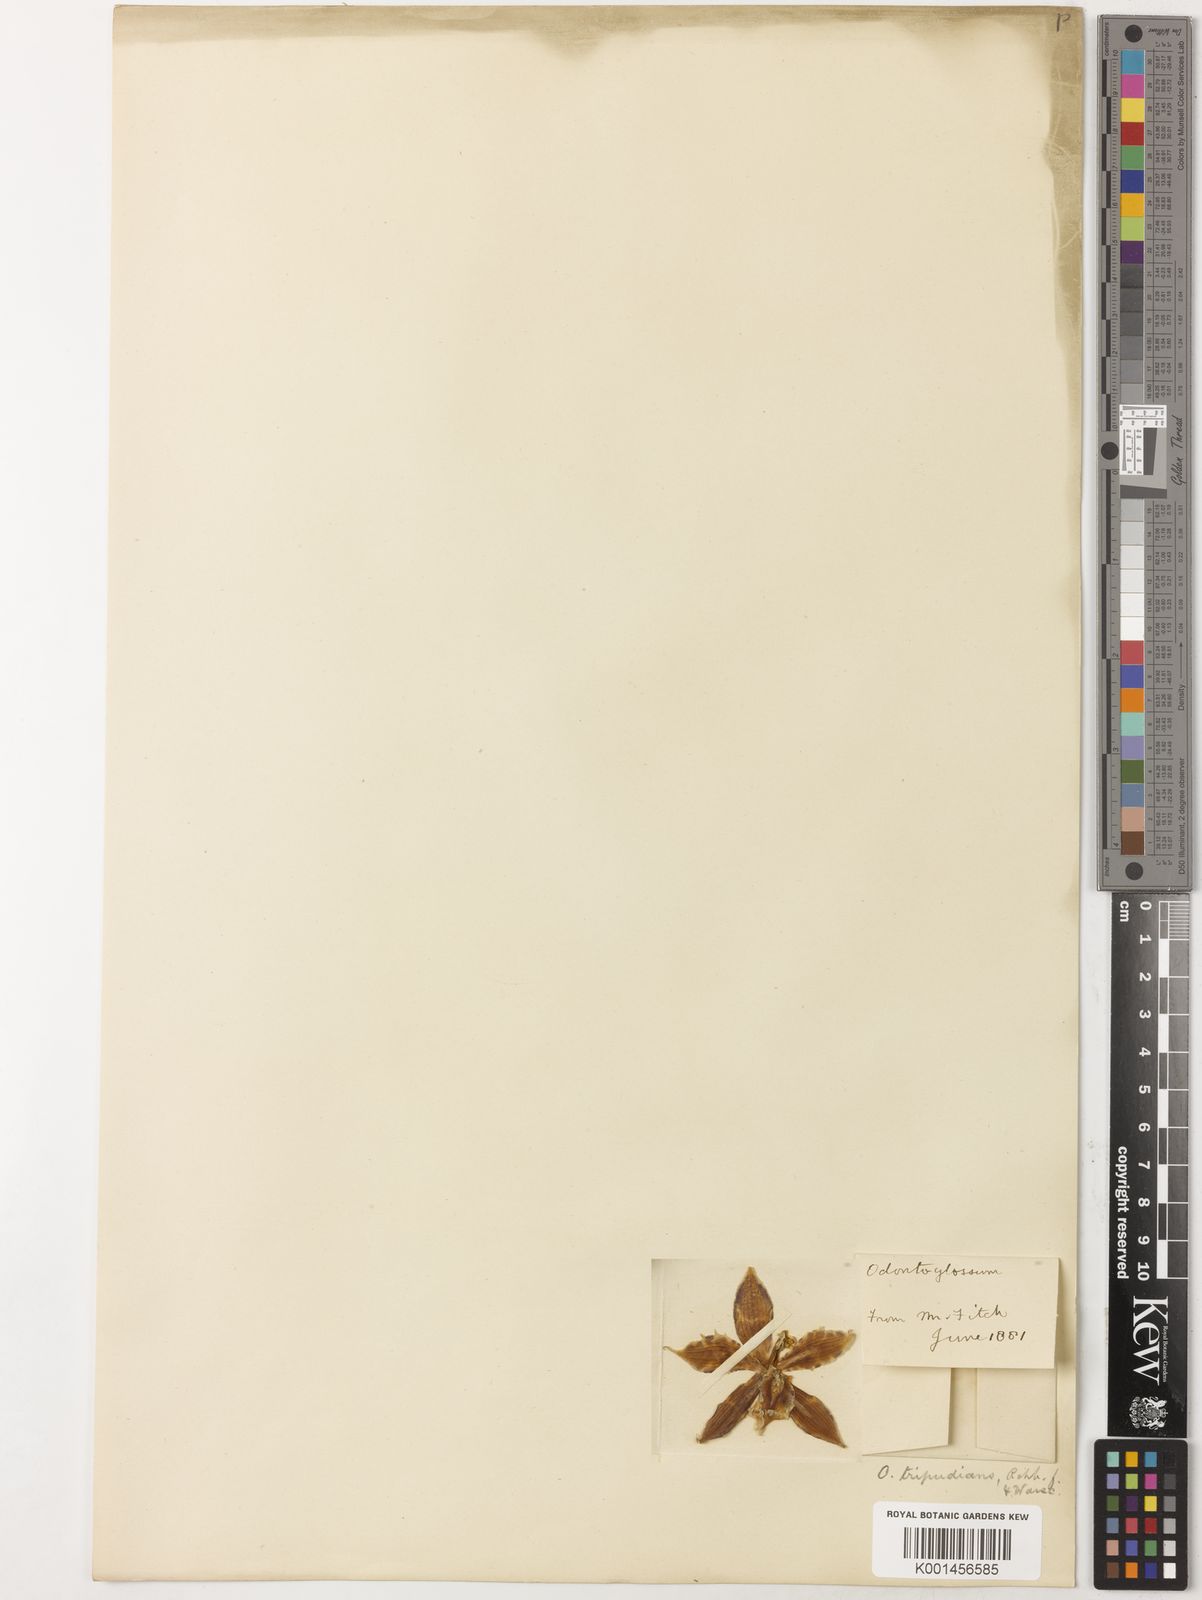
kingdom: Plantae
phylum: Tracheophyta
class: Liliopsida
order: Asparagales
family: Orchidaceae
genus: Oncidium
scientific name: Oncidium tripudians
